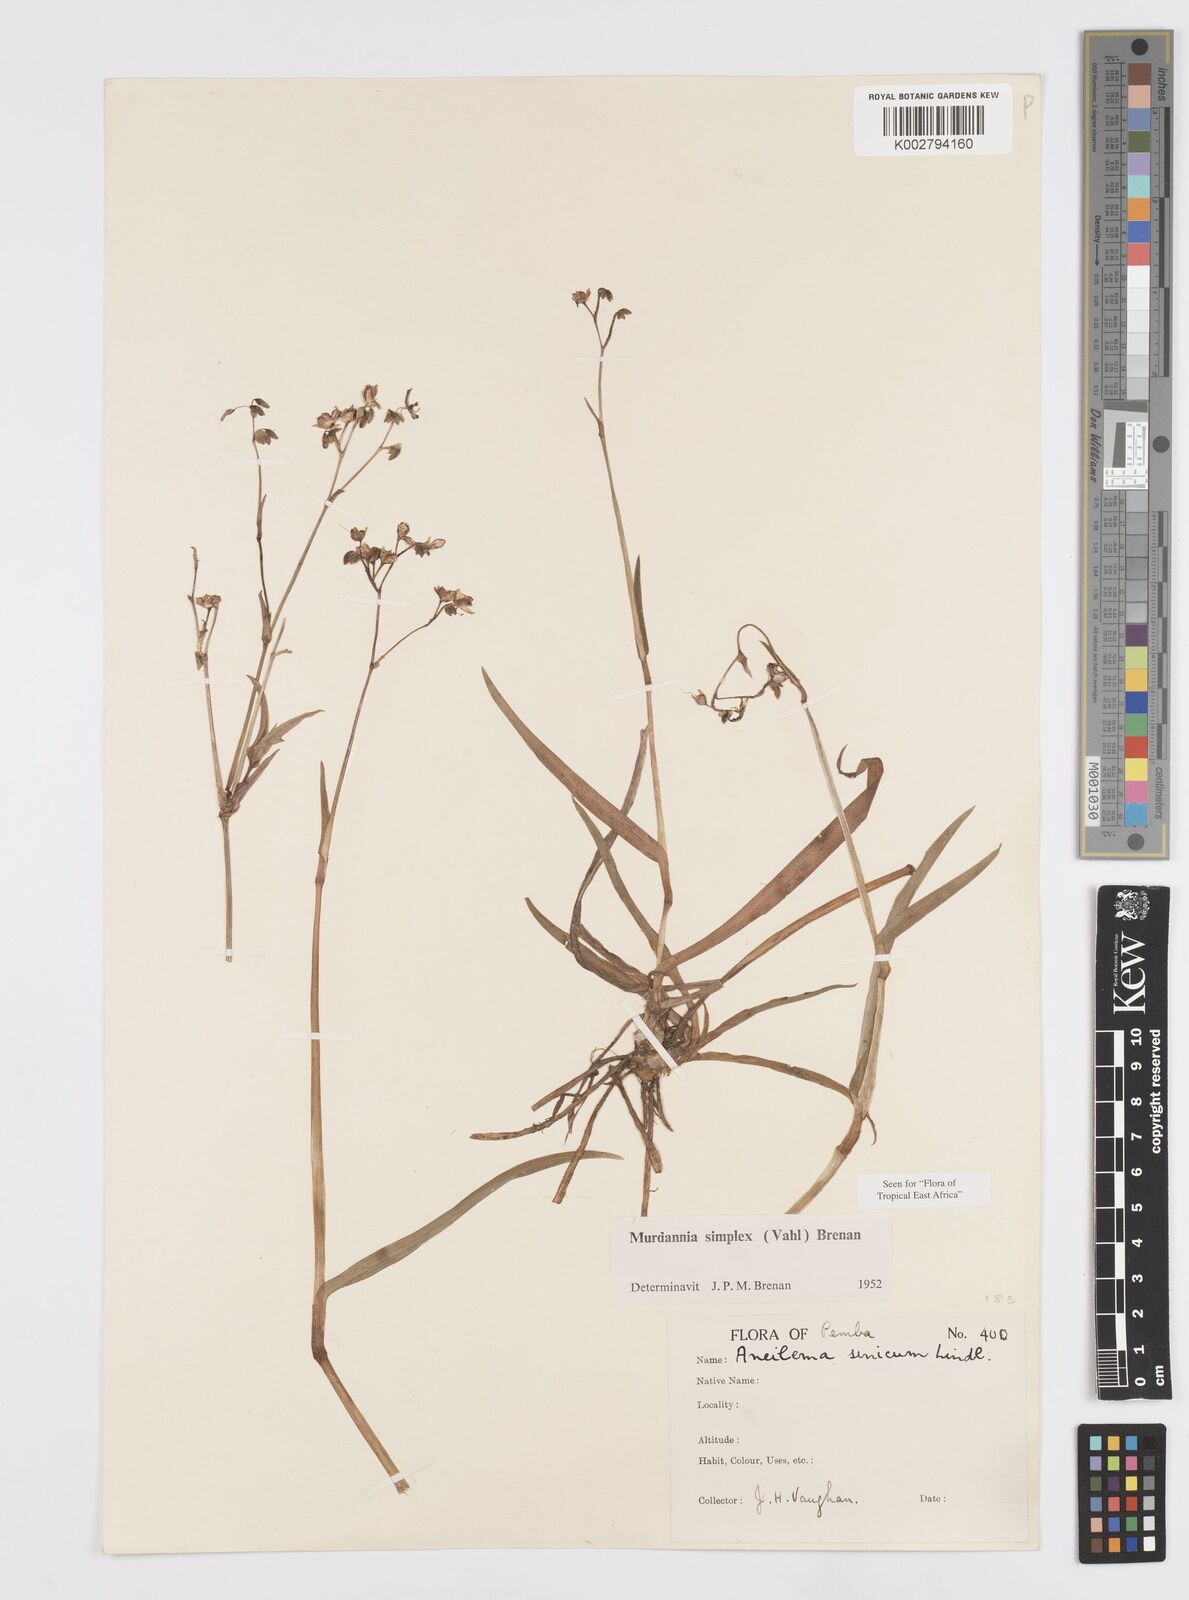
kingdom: Plantae
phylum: Tracheophyta
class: Liliopsida
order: Commelinales
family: Commelinaceae
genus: Murdannia
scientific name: Murdannia simplex
